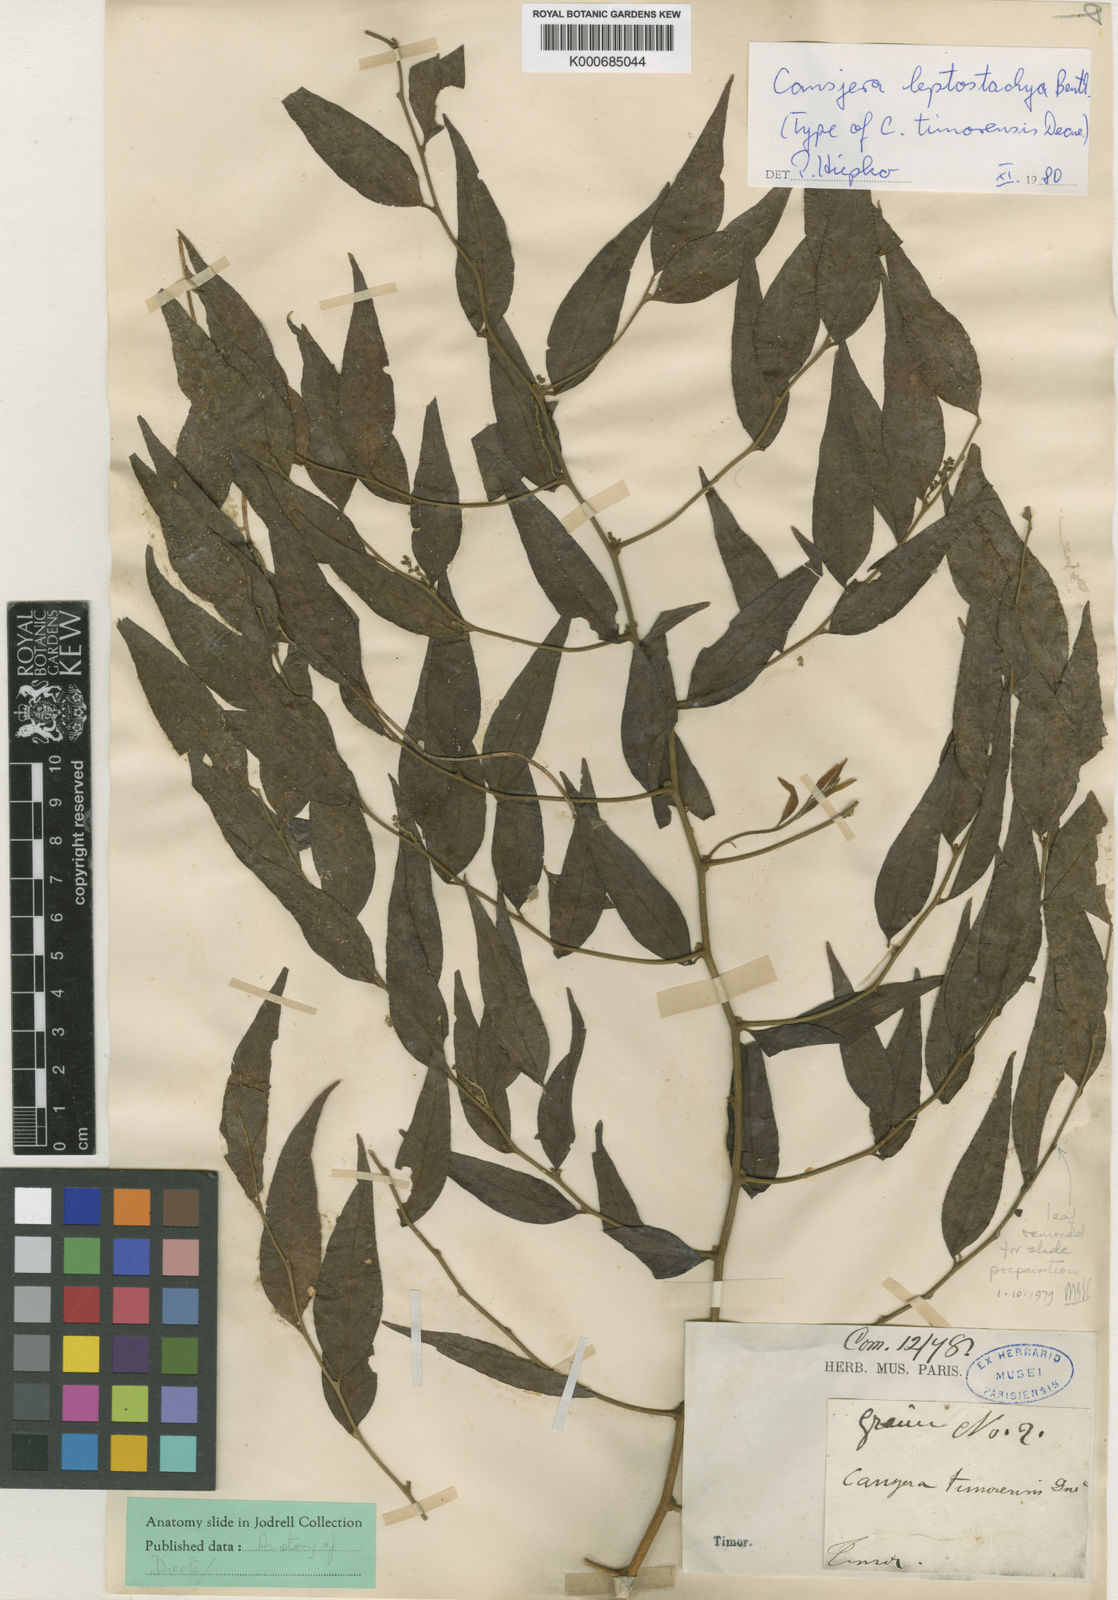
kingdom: Plantae
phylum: Tracheophyta
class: Magnoliopsida
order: Santalales
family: Opiliaceae
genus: Cansjera
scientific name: Cansjera leptostachya
